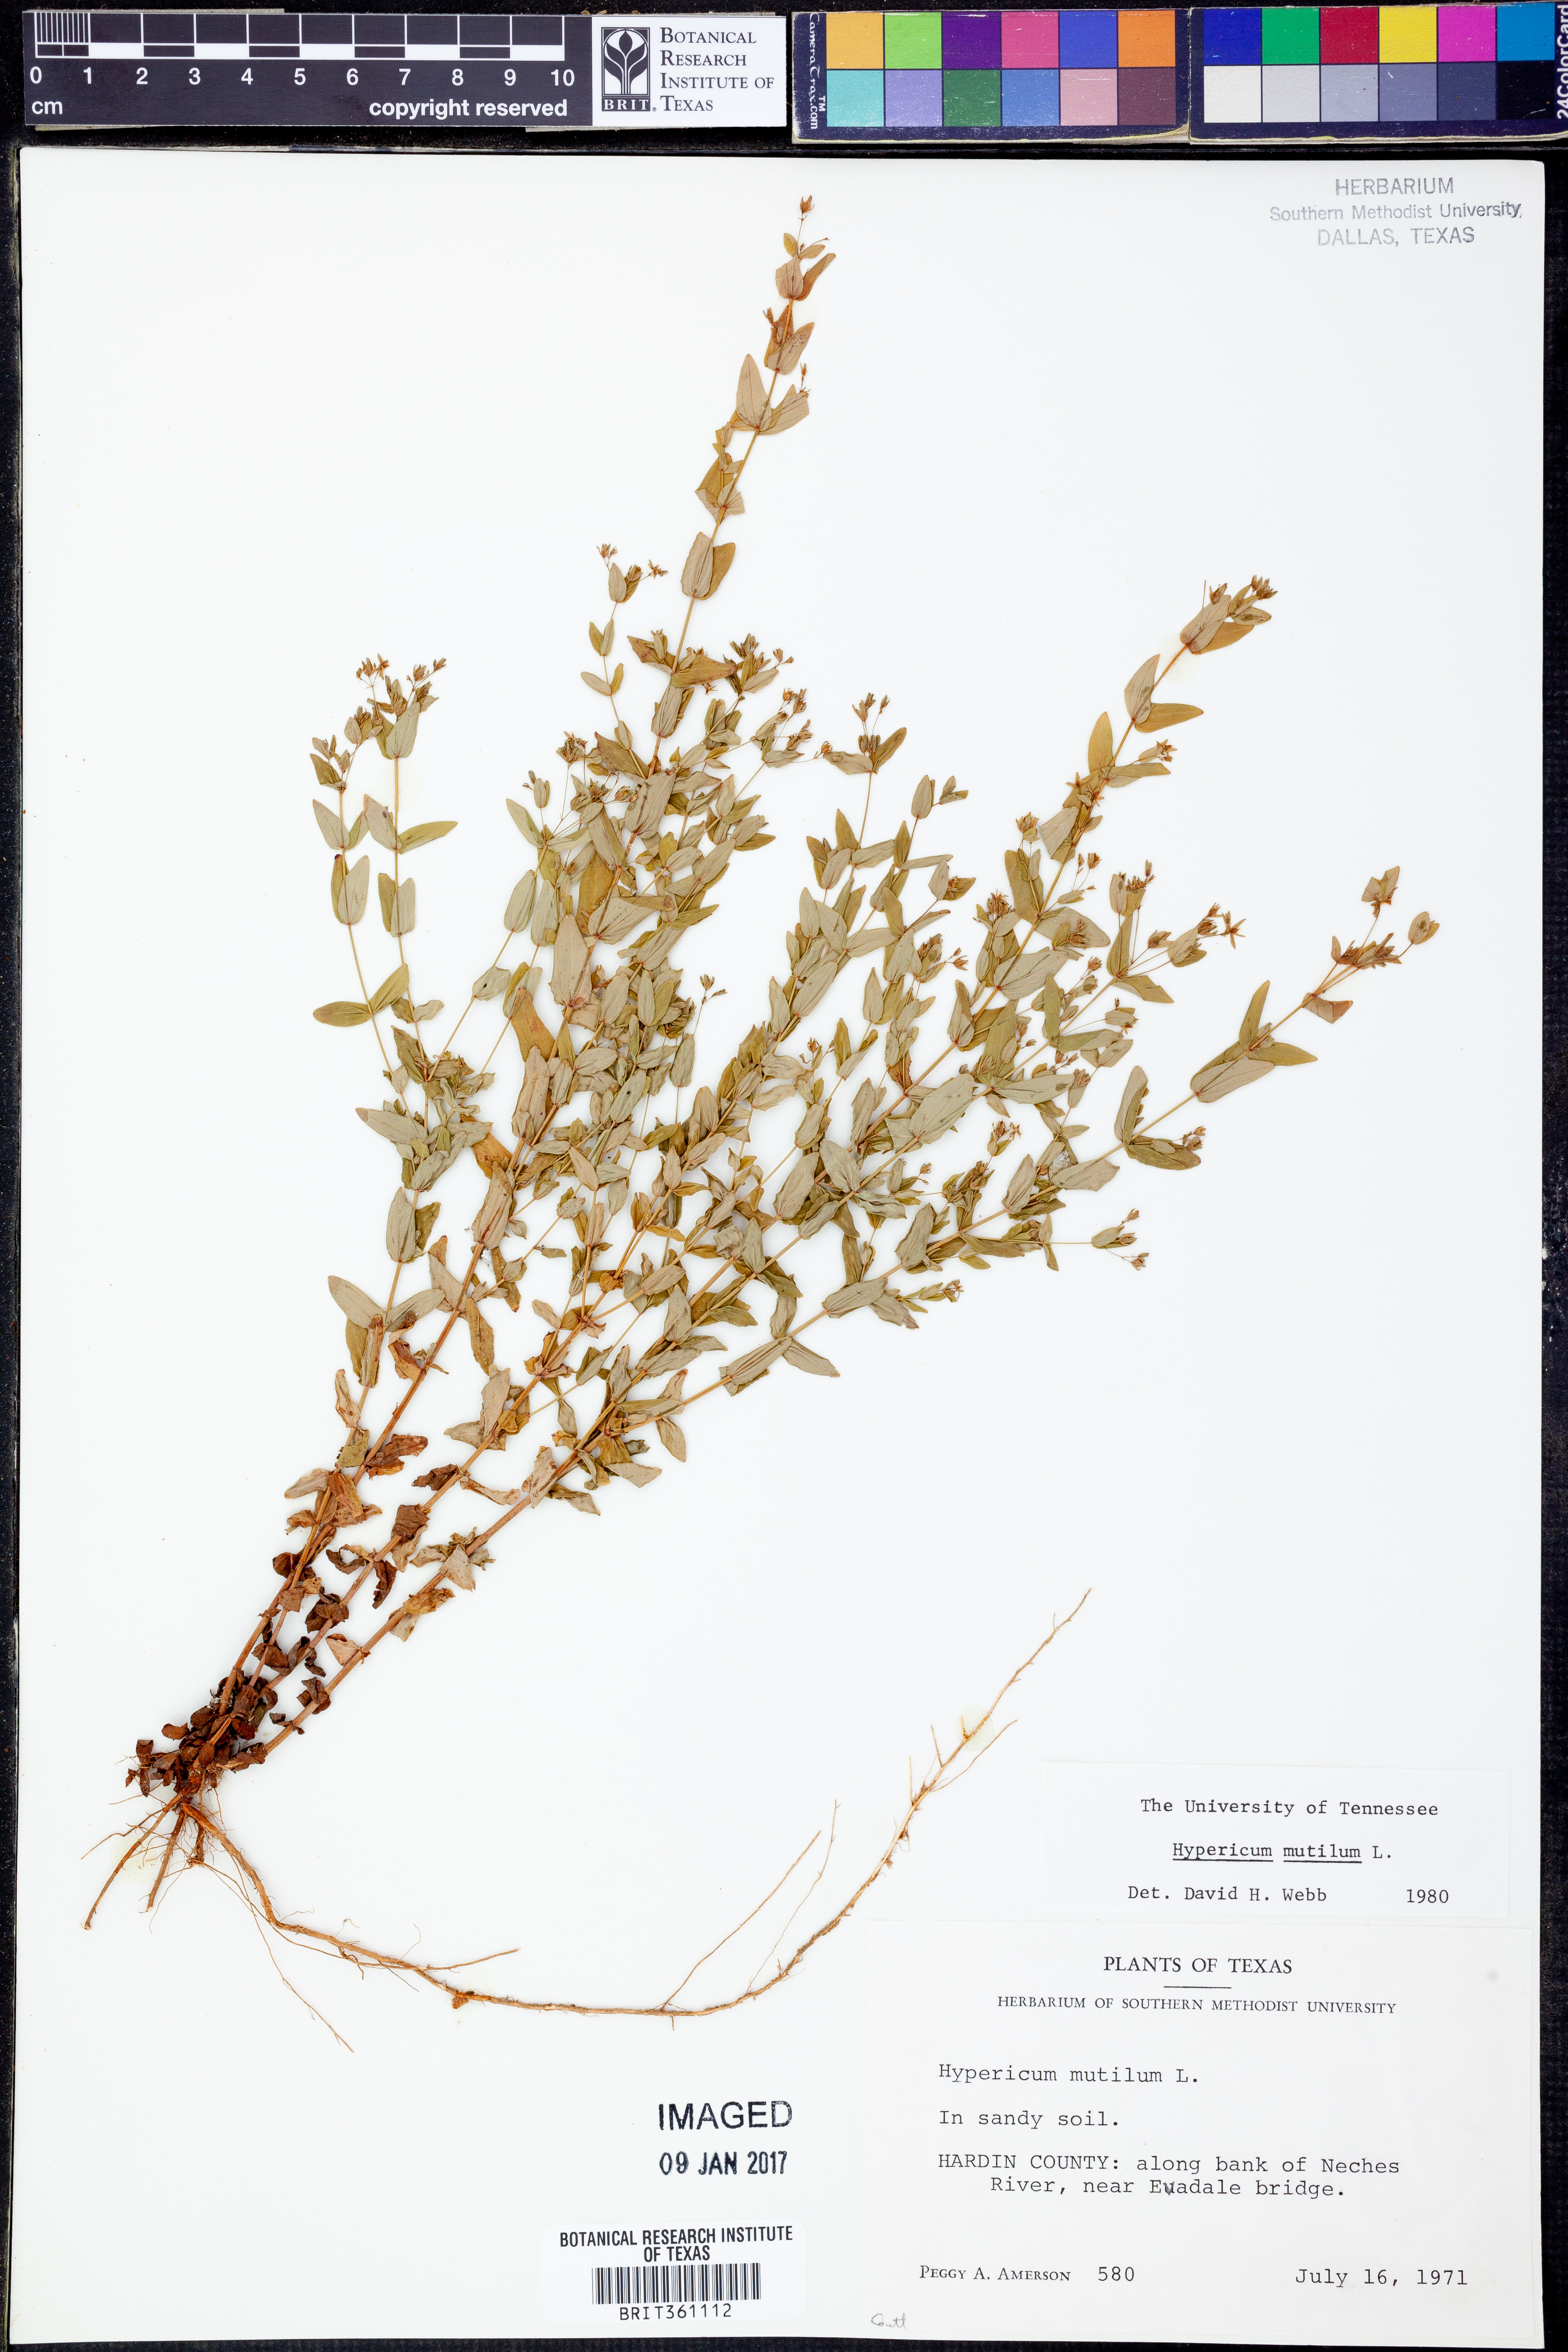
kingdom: Plantae
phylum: Tracheophyta
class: Magnoliopsida
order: Malpighiales
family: Hypericaceae
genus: Hypericum
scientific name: Hypericum mutilum
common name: Dwarf st. john's-wort
